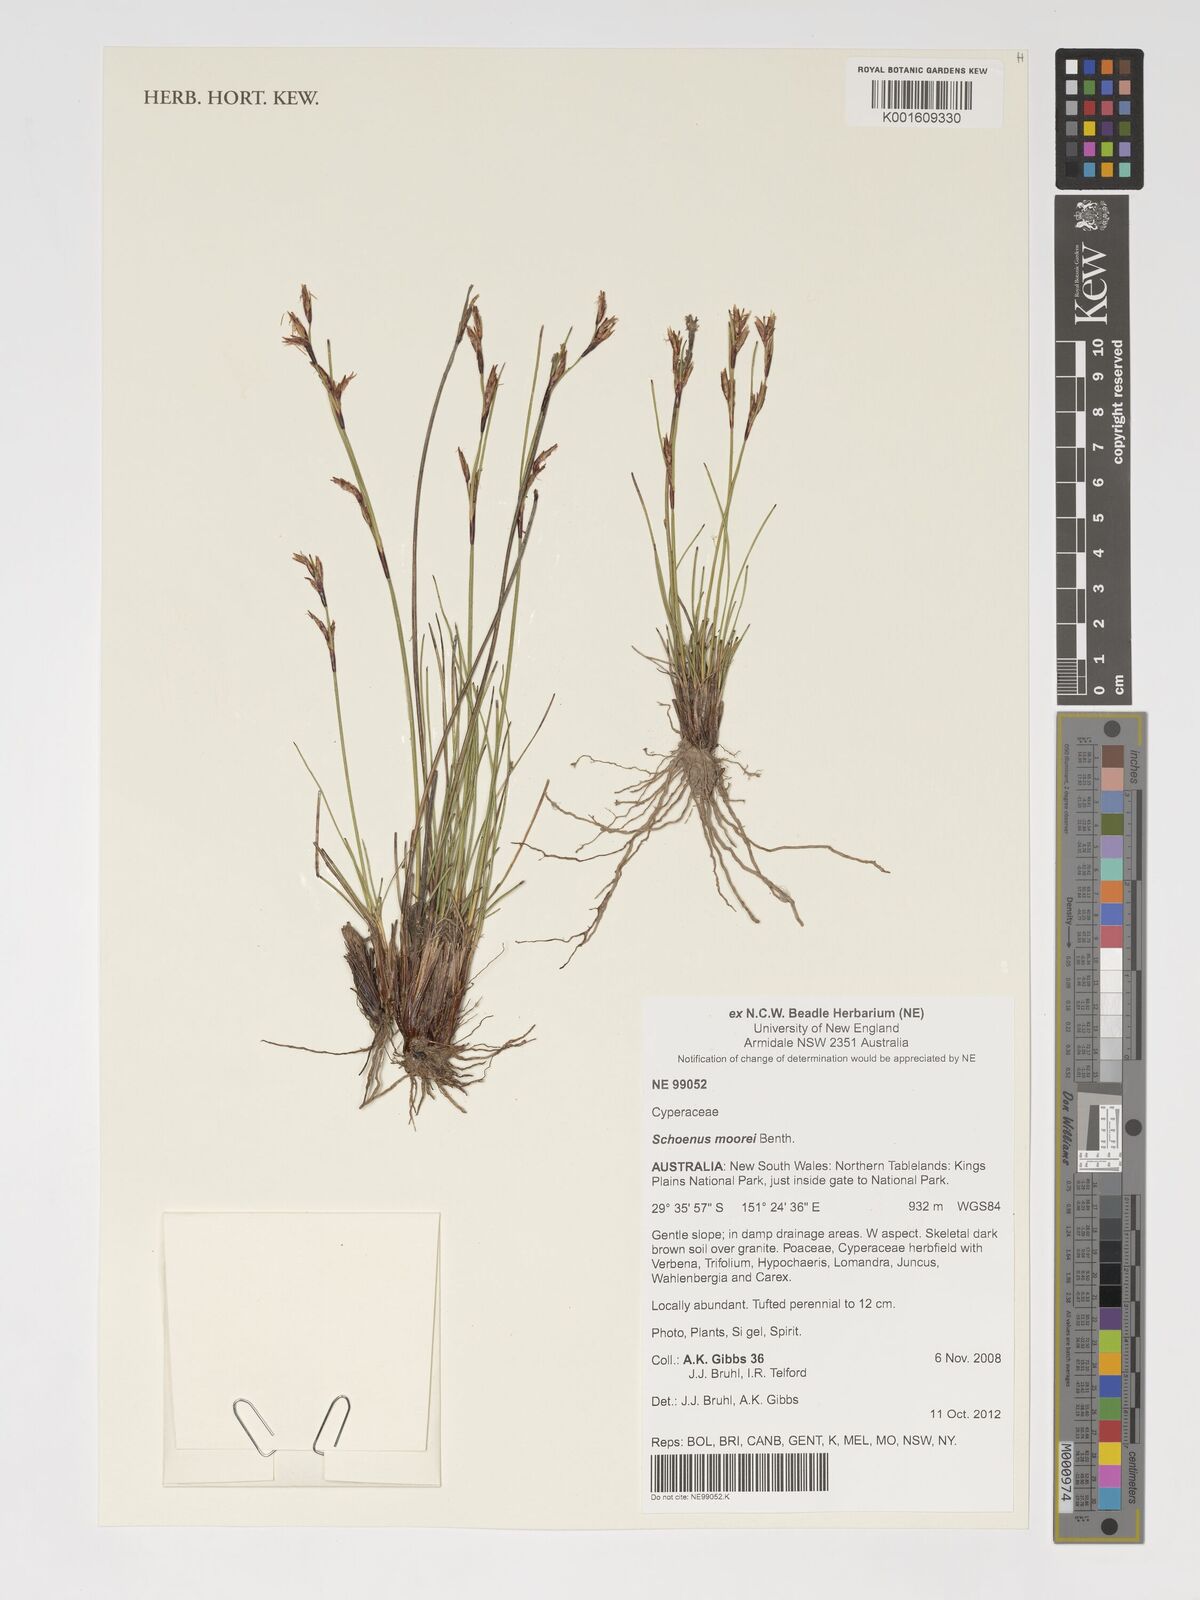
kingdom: Plantae
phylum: Tracheophyta
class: Liliopsida
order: Poales
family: Cyperaceae
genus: Schoenus
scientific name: Schoenus moorei
